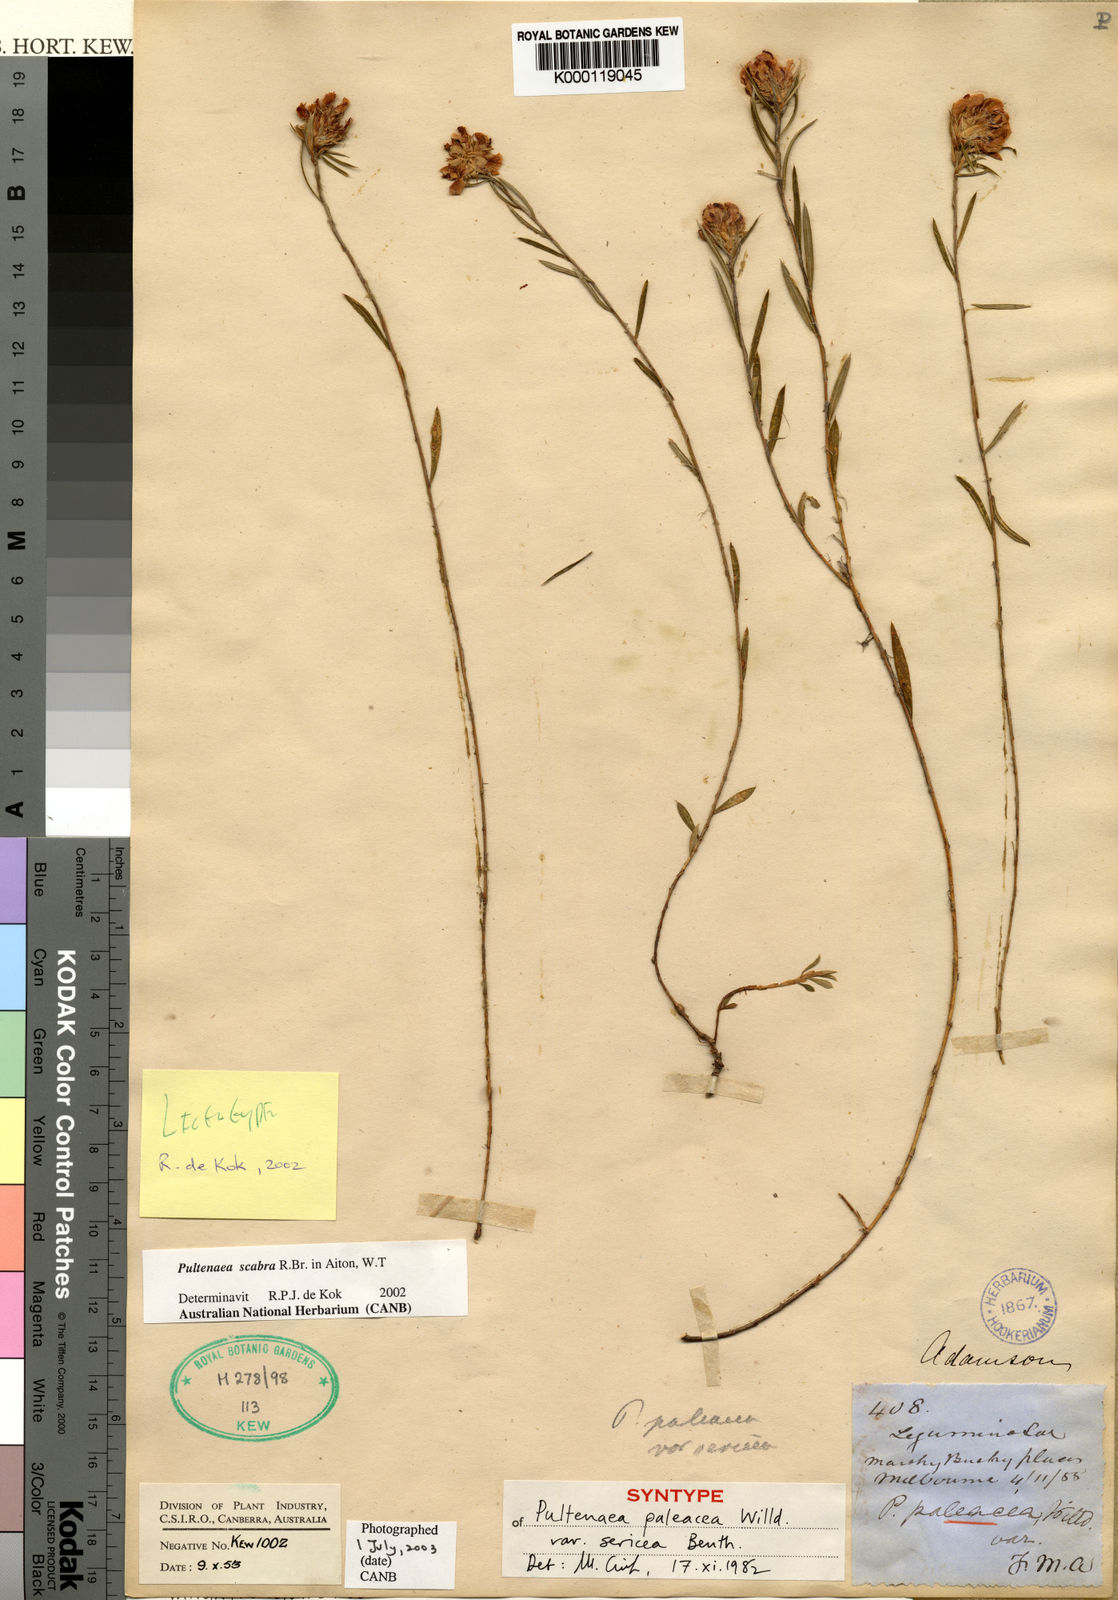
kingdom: Plantae
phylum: Tracheophyta
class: Magnoliopsida
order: Fabales
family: Fabaceae
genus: Pultenaea
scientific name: Pultenaea juniperina
